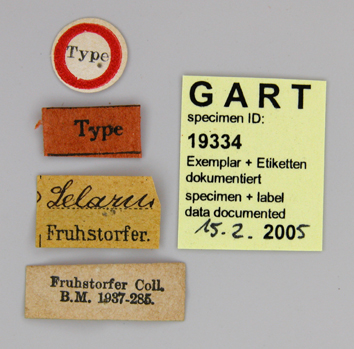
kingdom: Animalia
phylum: Arthropoda
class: Insecta
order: Lepidoptera
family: Papilionidae
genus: Papilio
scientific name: Papilio pericles
